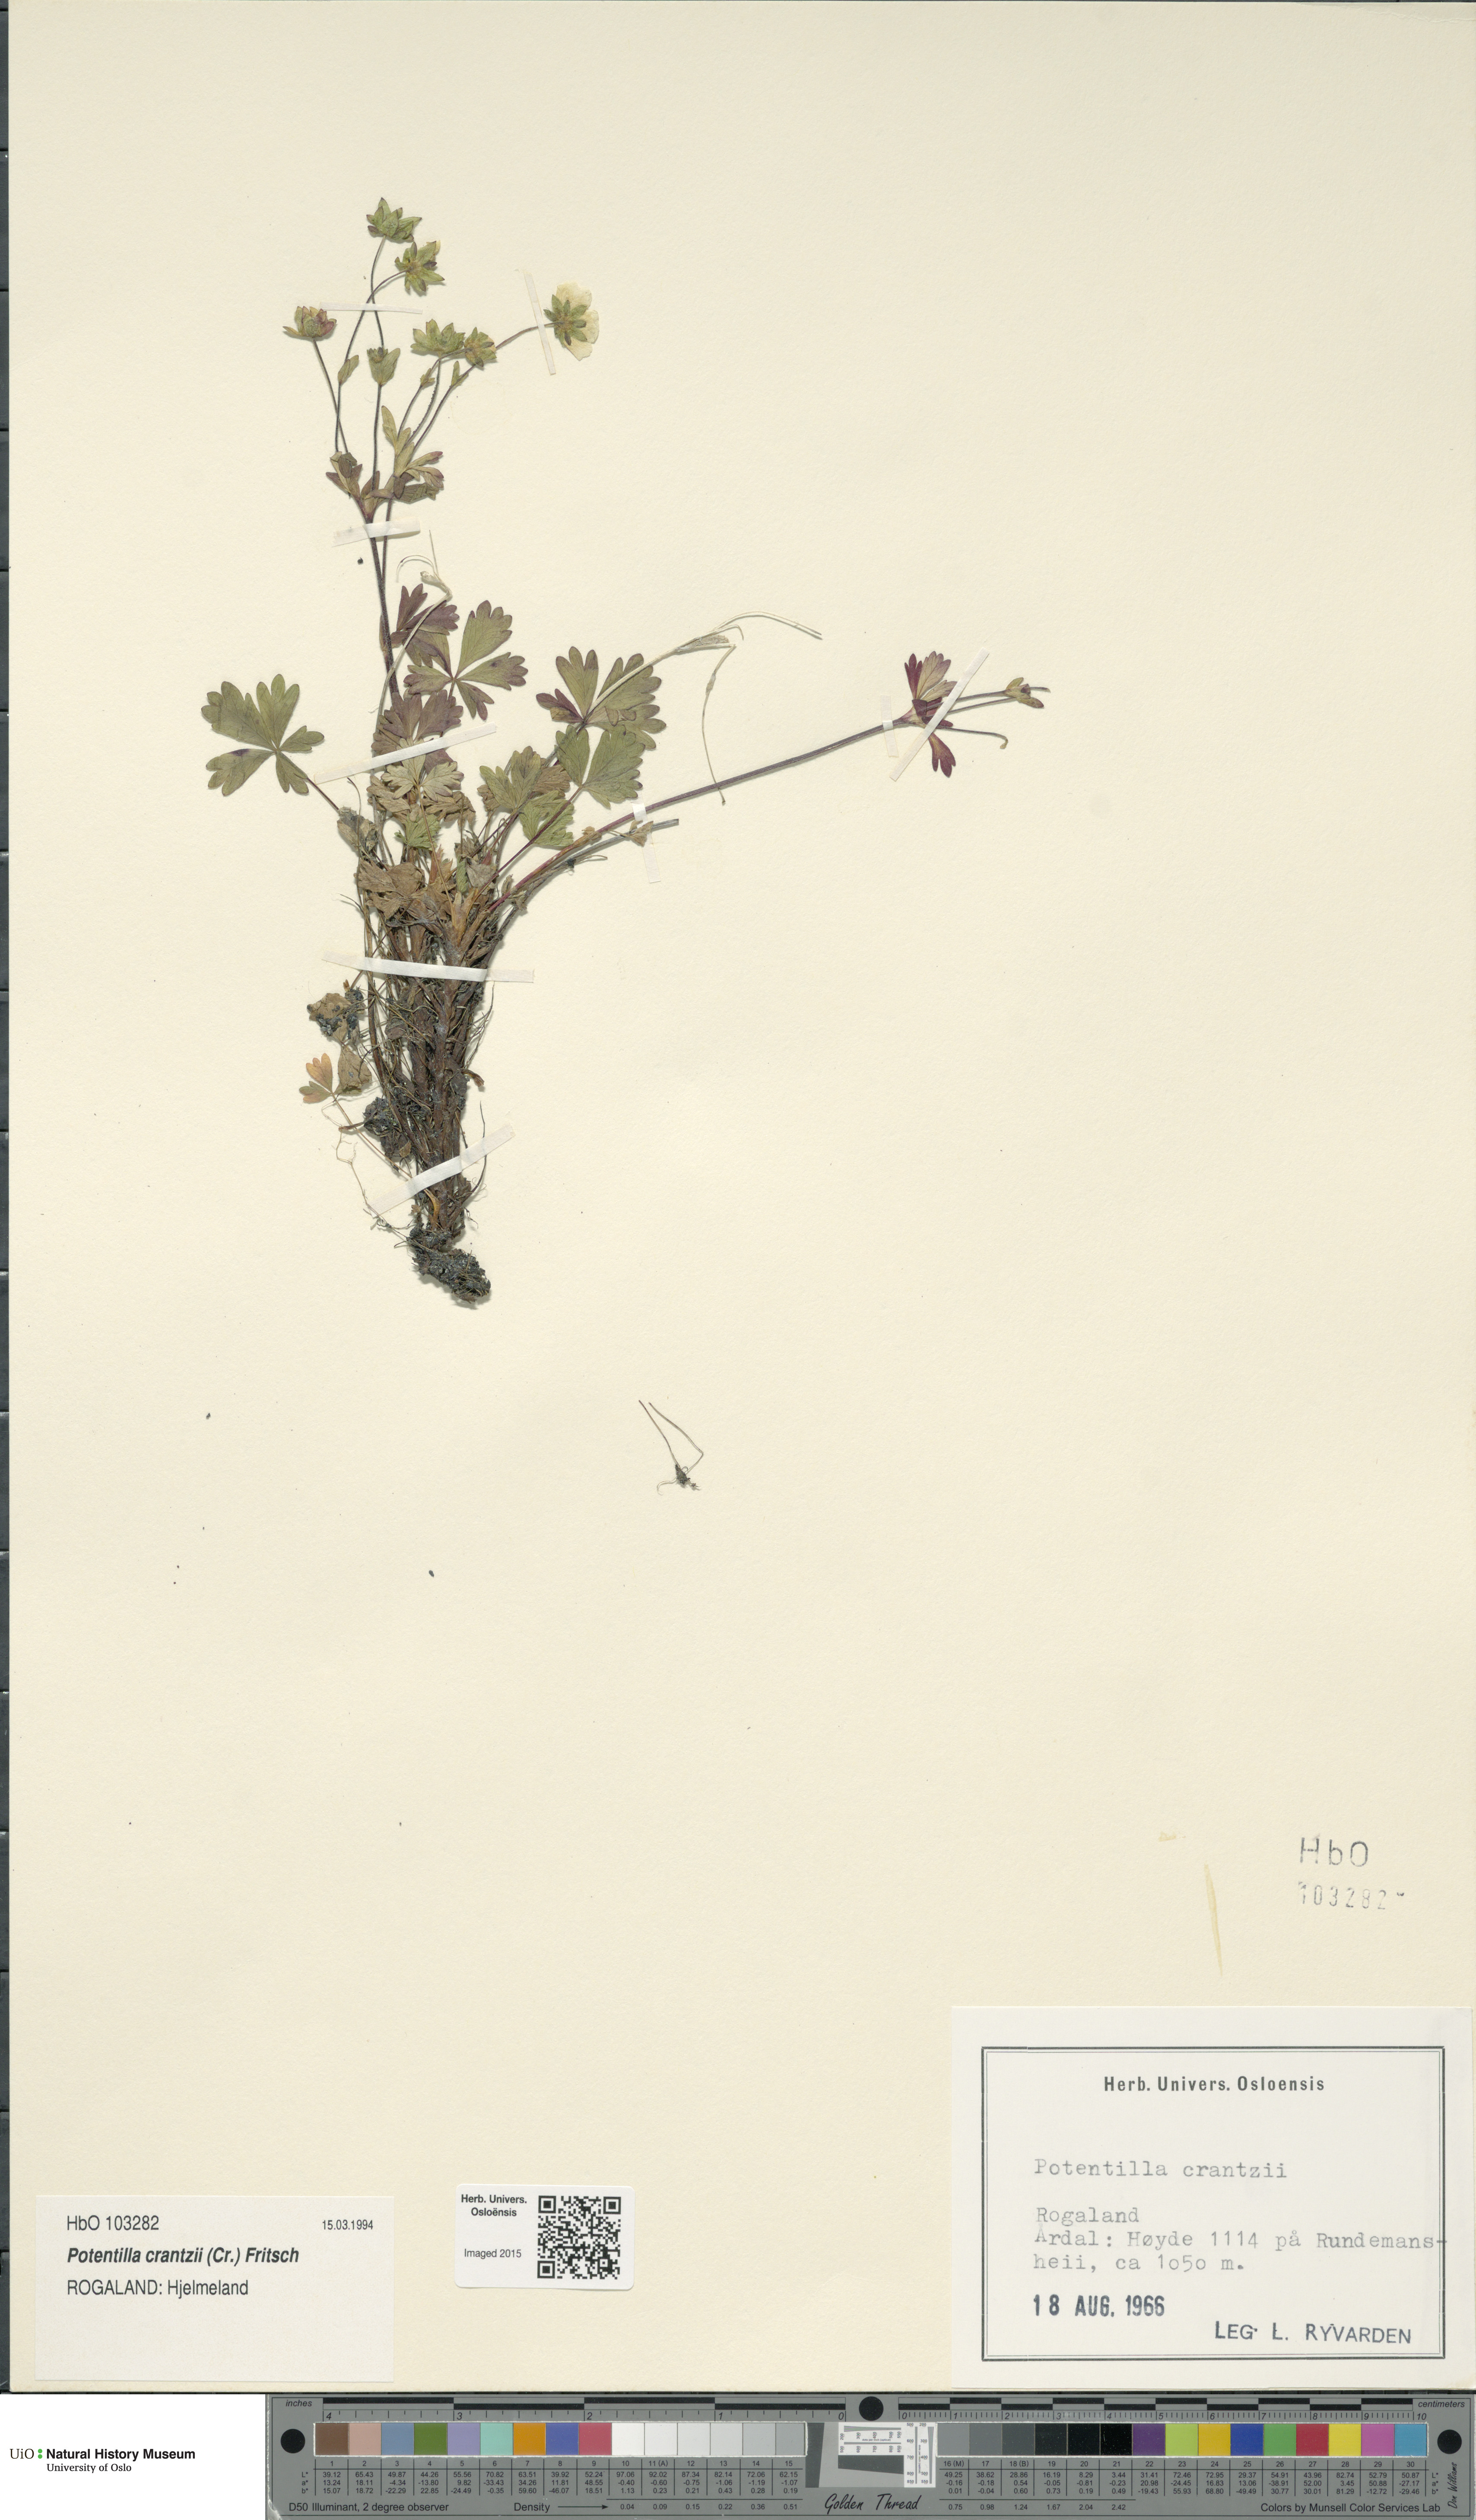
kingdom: Plantae
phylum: Tracheophyta
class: Magnoliopsida
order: Rosales
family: Rosaceae
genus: Potentilla
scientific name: Potentilla crantzii
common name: Alpine cinquefoil
